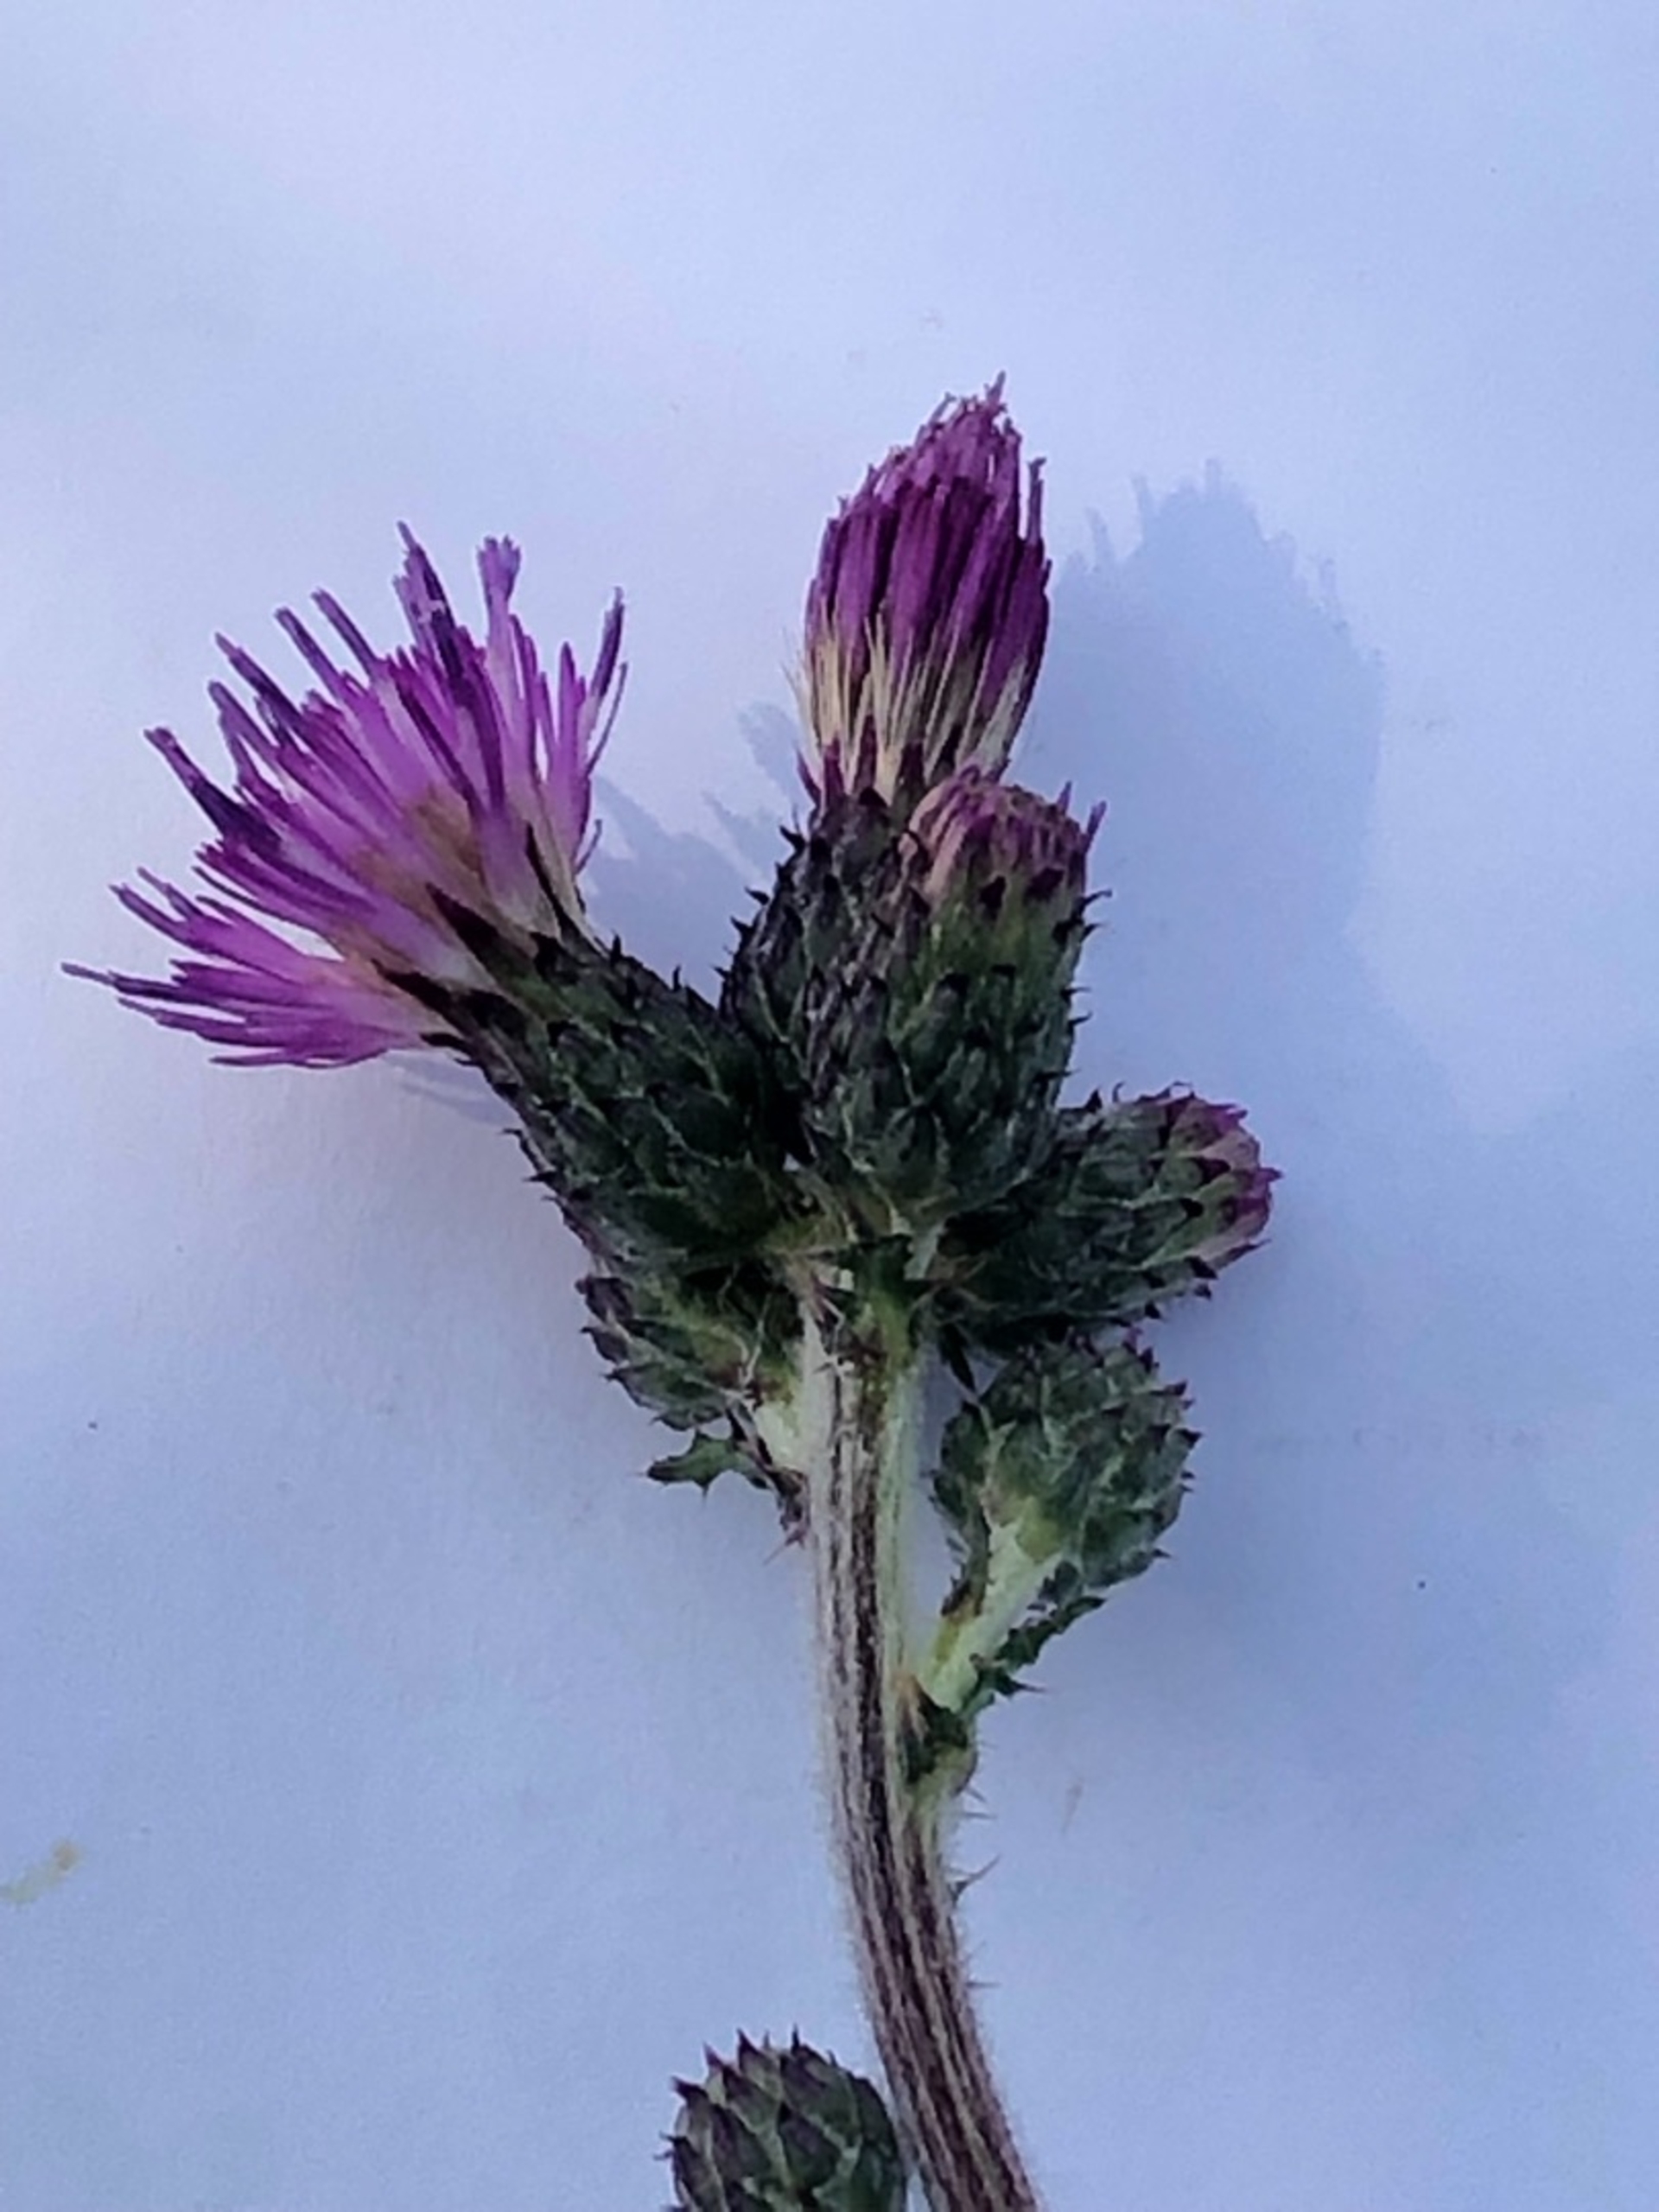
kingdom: Plantae
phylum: Tracheophyta
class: Magnoliopsida
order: Asterales
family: Asteraceae
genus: Cirsium
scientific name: Cirsium palustre
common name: Kær-tidsel
